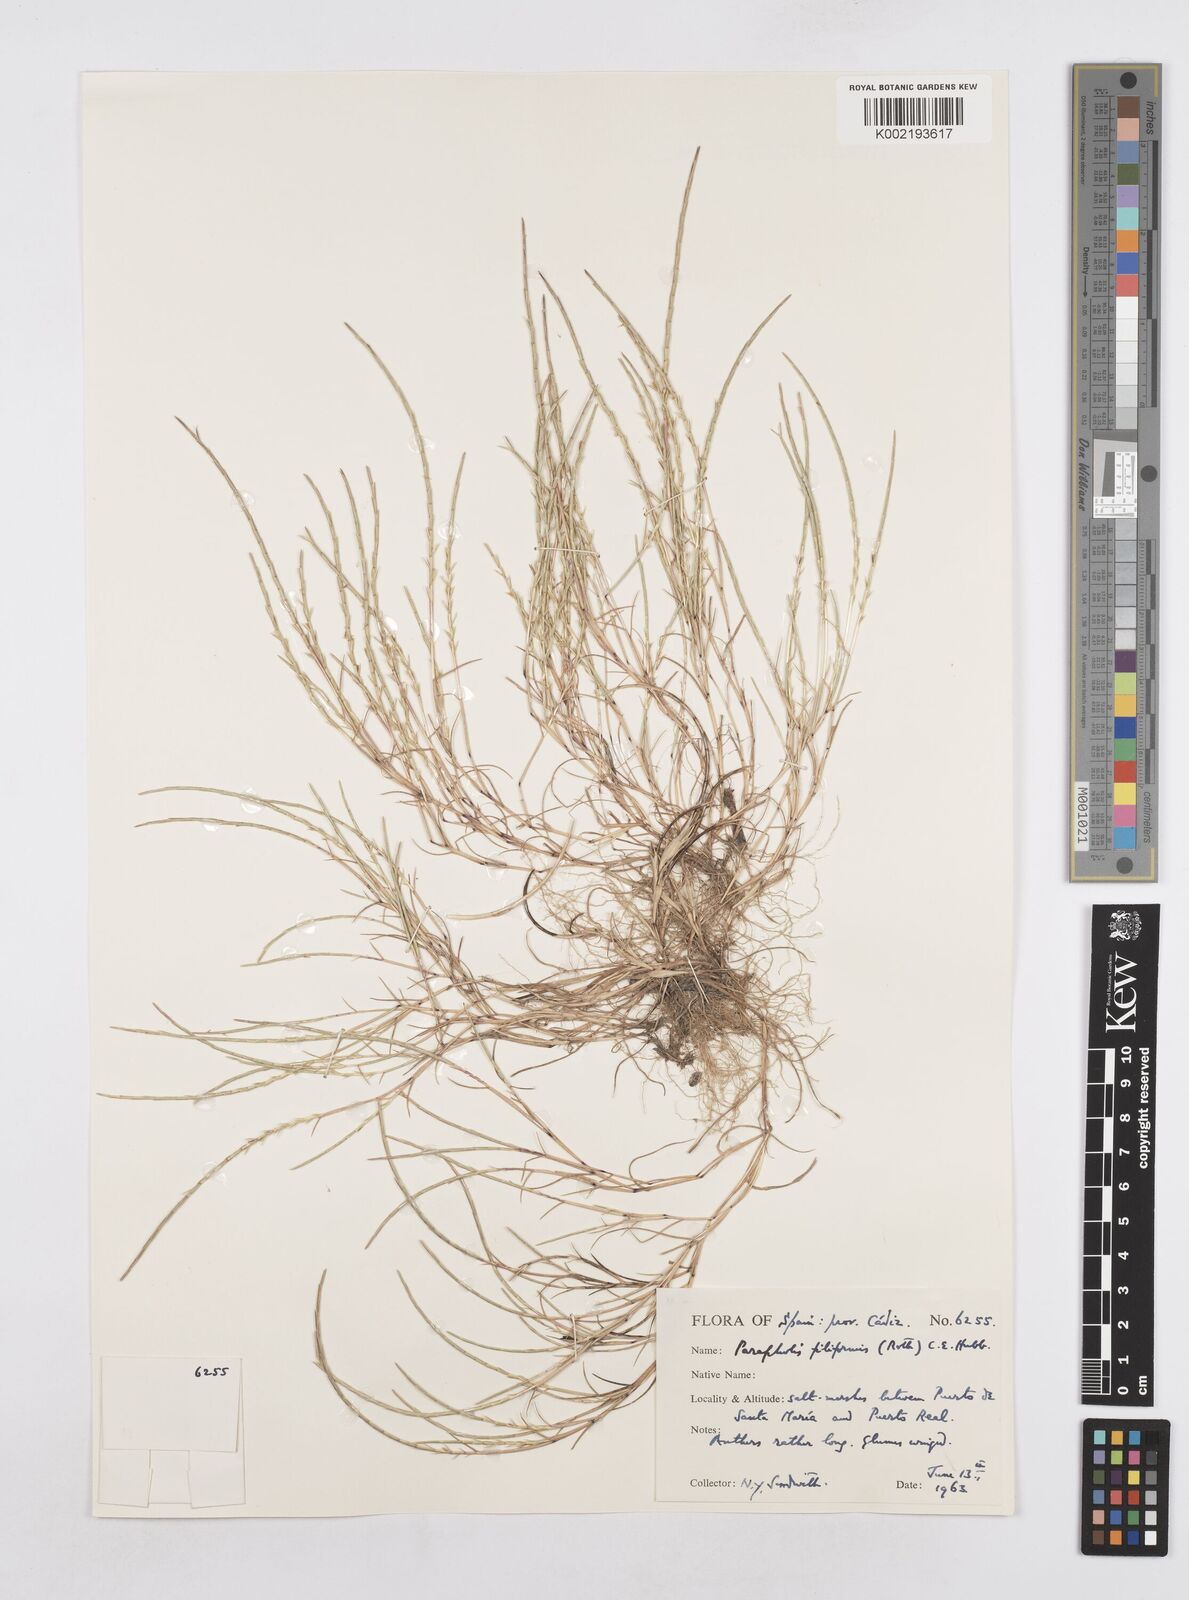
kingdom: Plantae
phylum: Tracheophyta
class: Liliopsida
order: Poales
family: Poaceae
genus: Parapholis
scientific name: Parapholis filiformis
